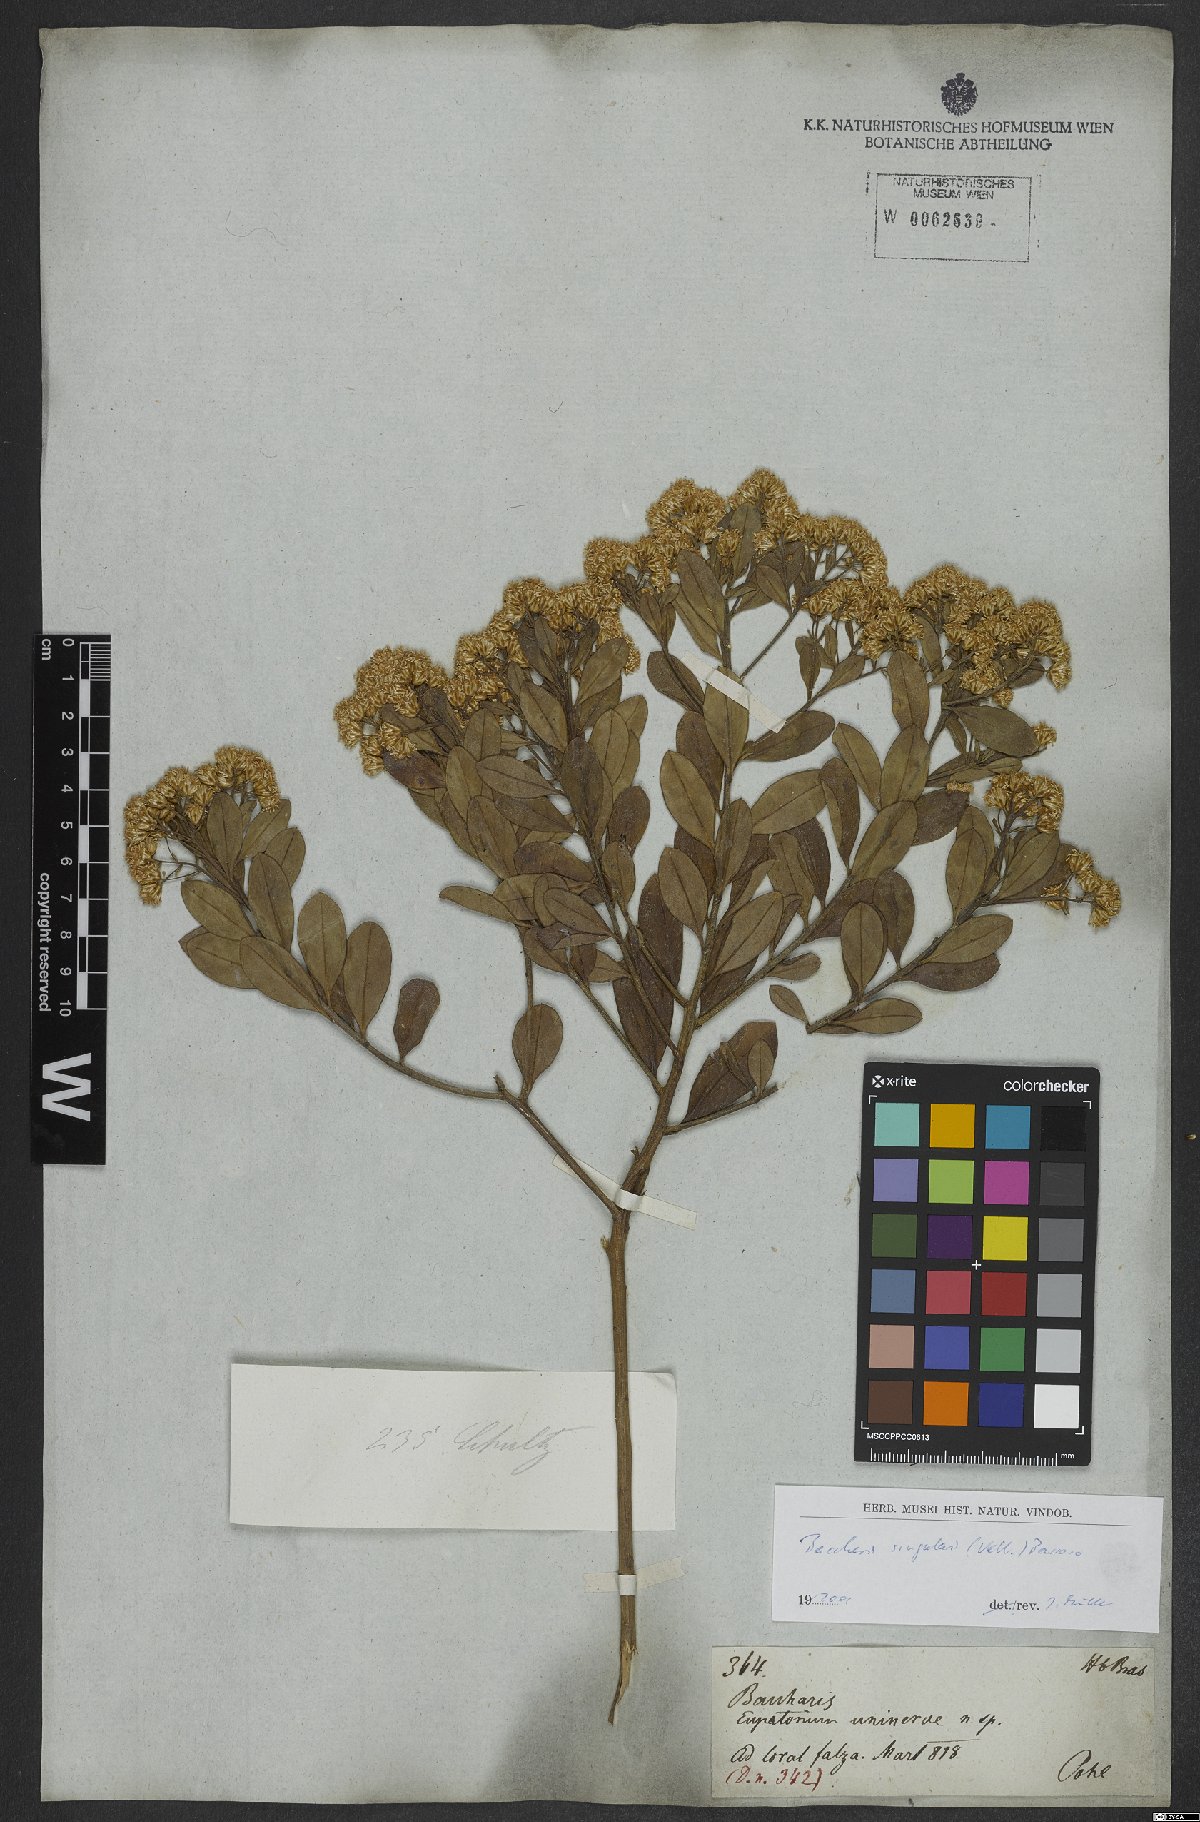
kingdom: Plantae
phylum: Tracheophyta
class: Magnoliopsida
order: Asterales
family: Asteraceae
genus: Baccharis
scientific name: Baccharis singularis
